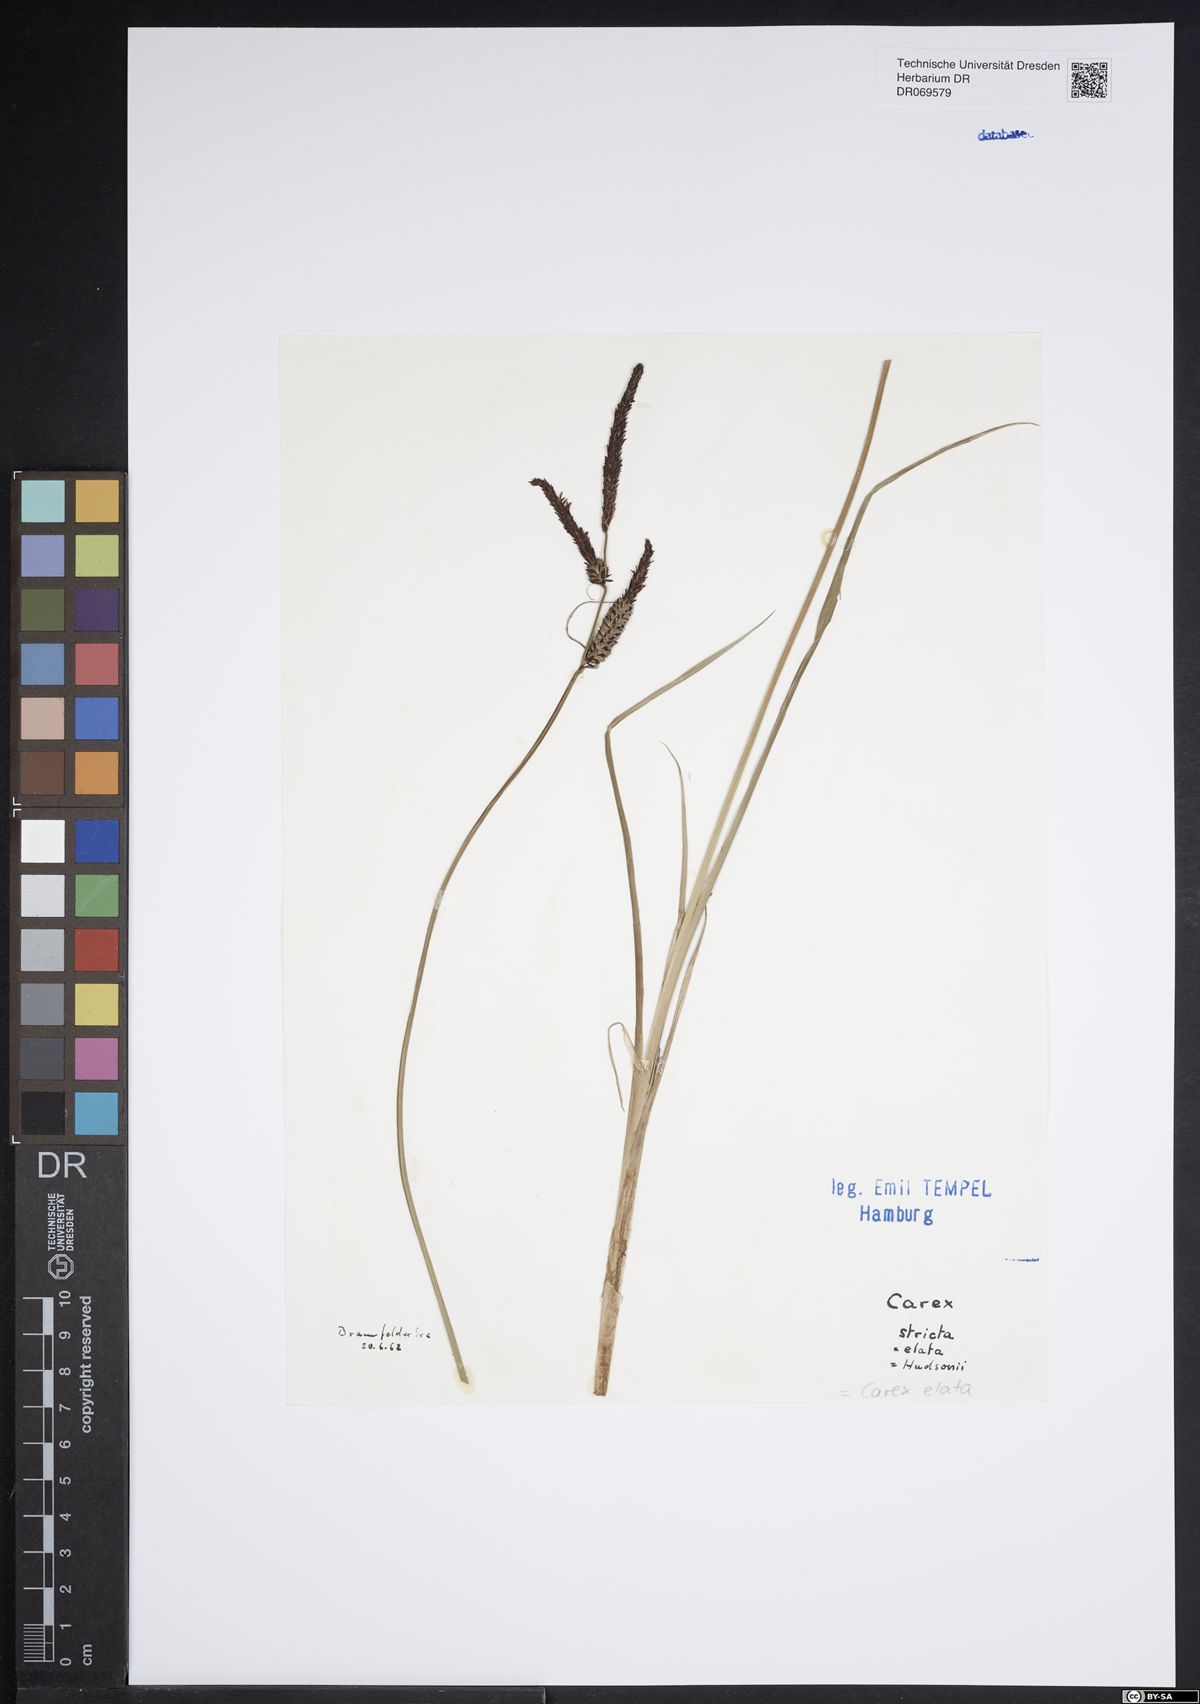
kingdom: Plantae
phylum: Tracheophyta
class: Liliopsida
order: Poales
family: Cyperaceae
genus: Carex
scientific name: Carex elata
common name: Tufted sedge
